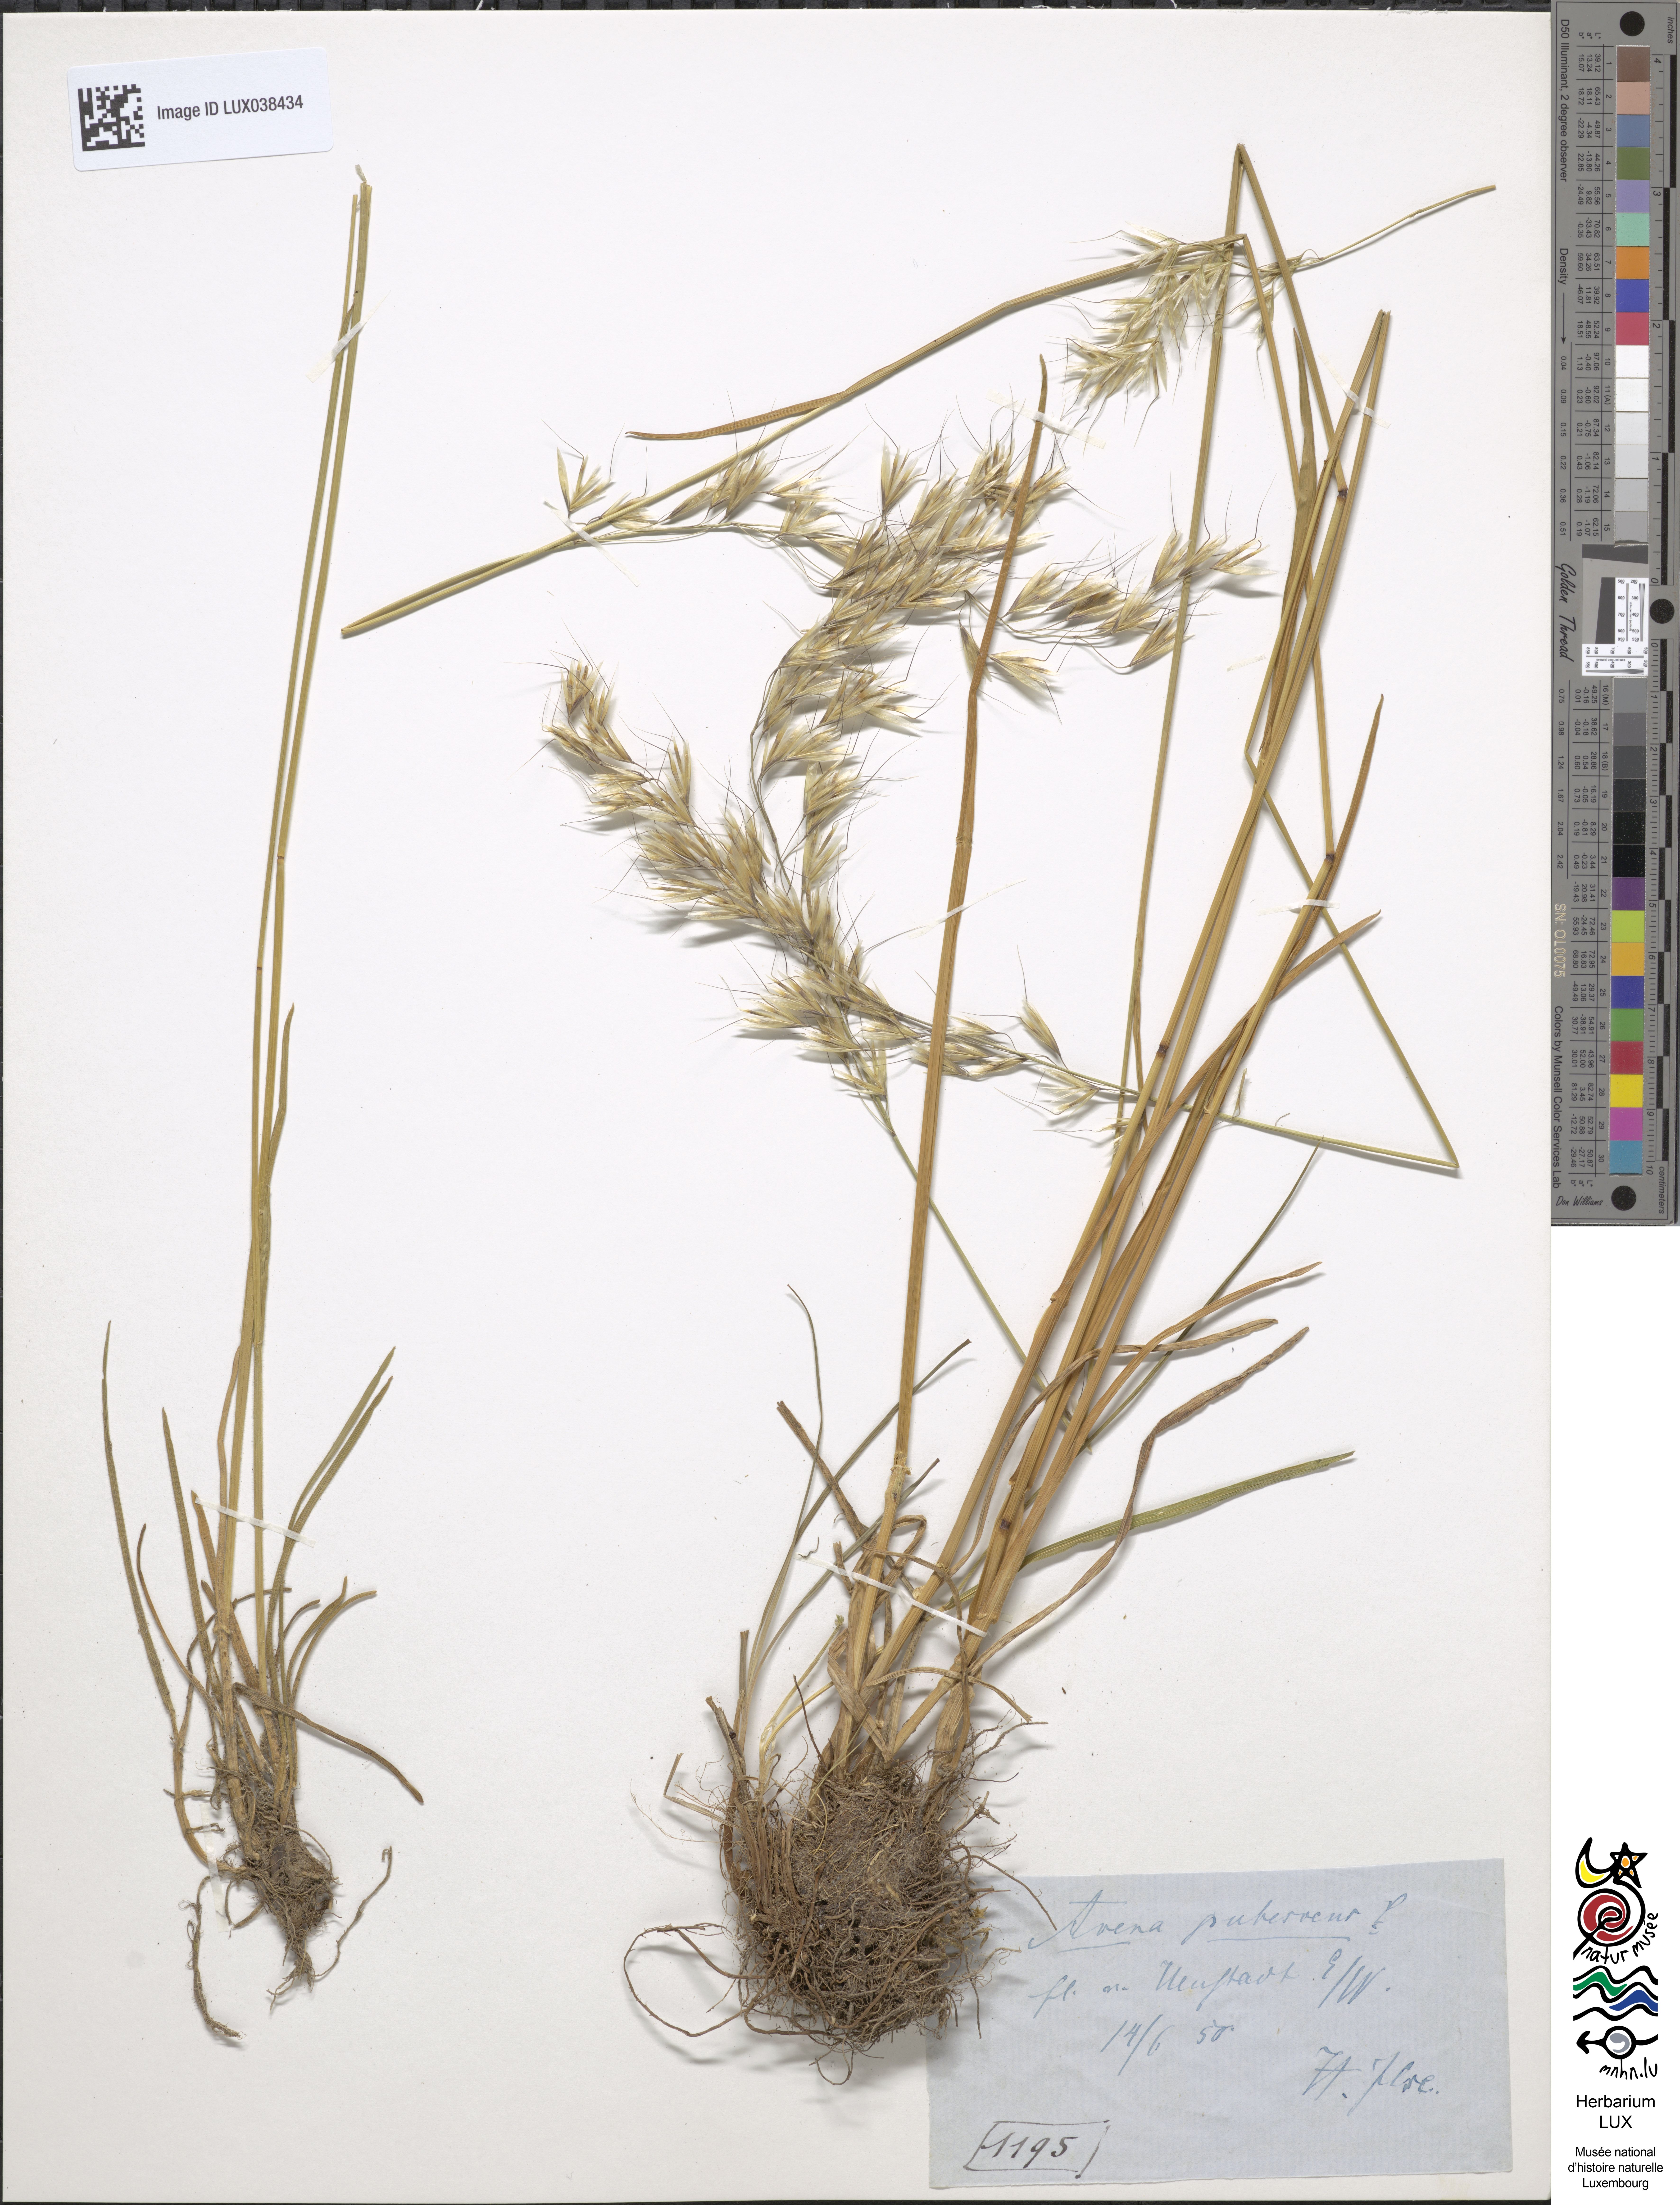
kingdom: Plantae
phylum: Tracheophyta
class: Liliopsida
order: Poales
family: Poaceae
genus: Avenula
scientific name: Avenula pubescens
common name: Downy alpine oatgrass
